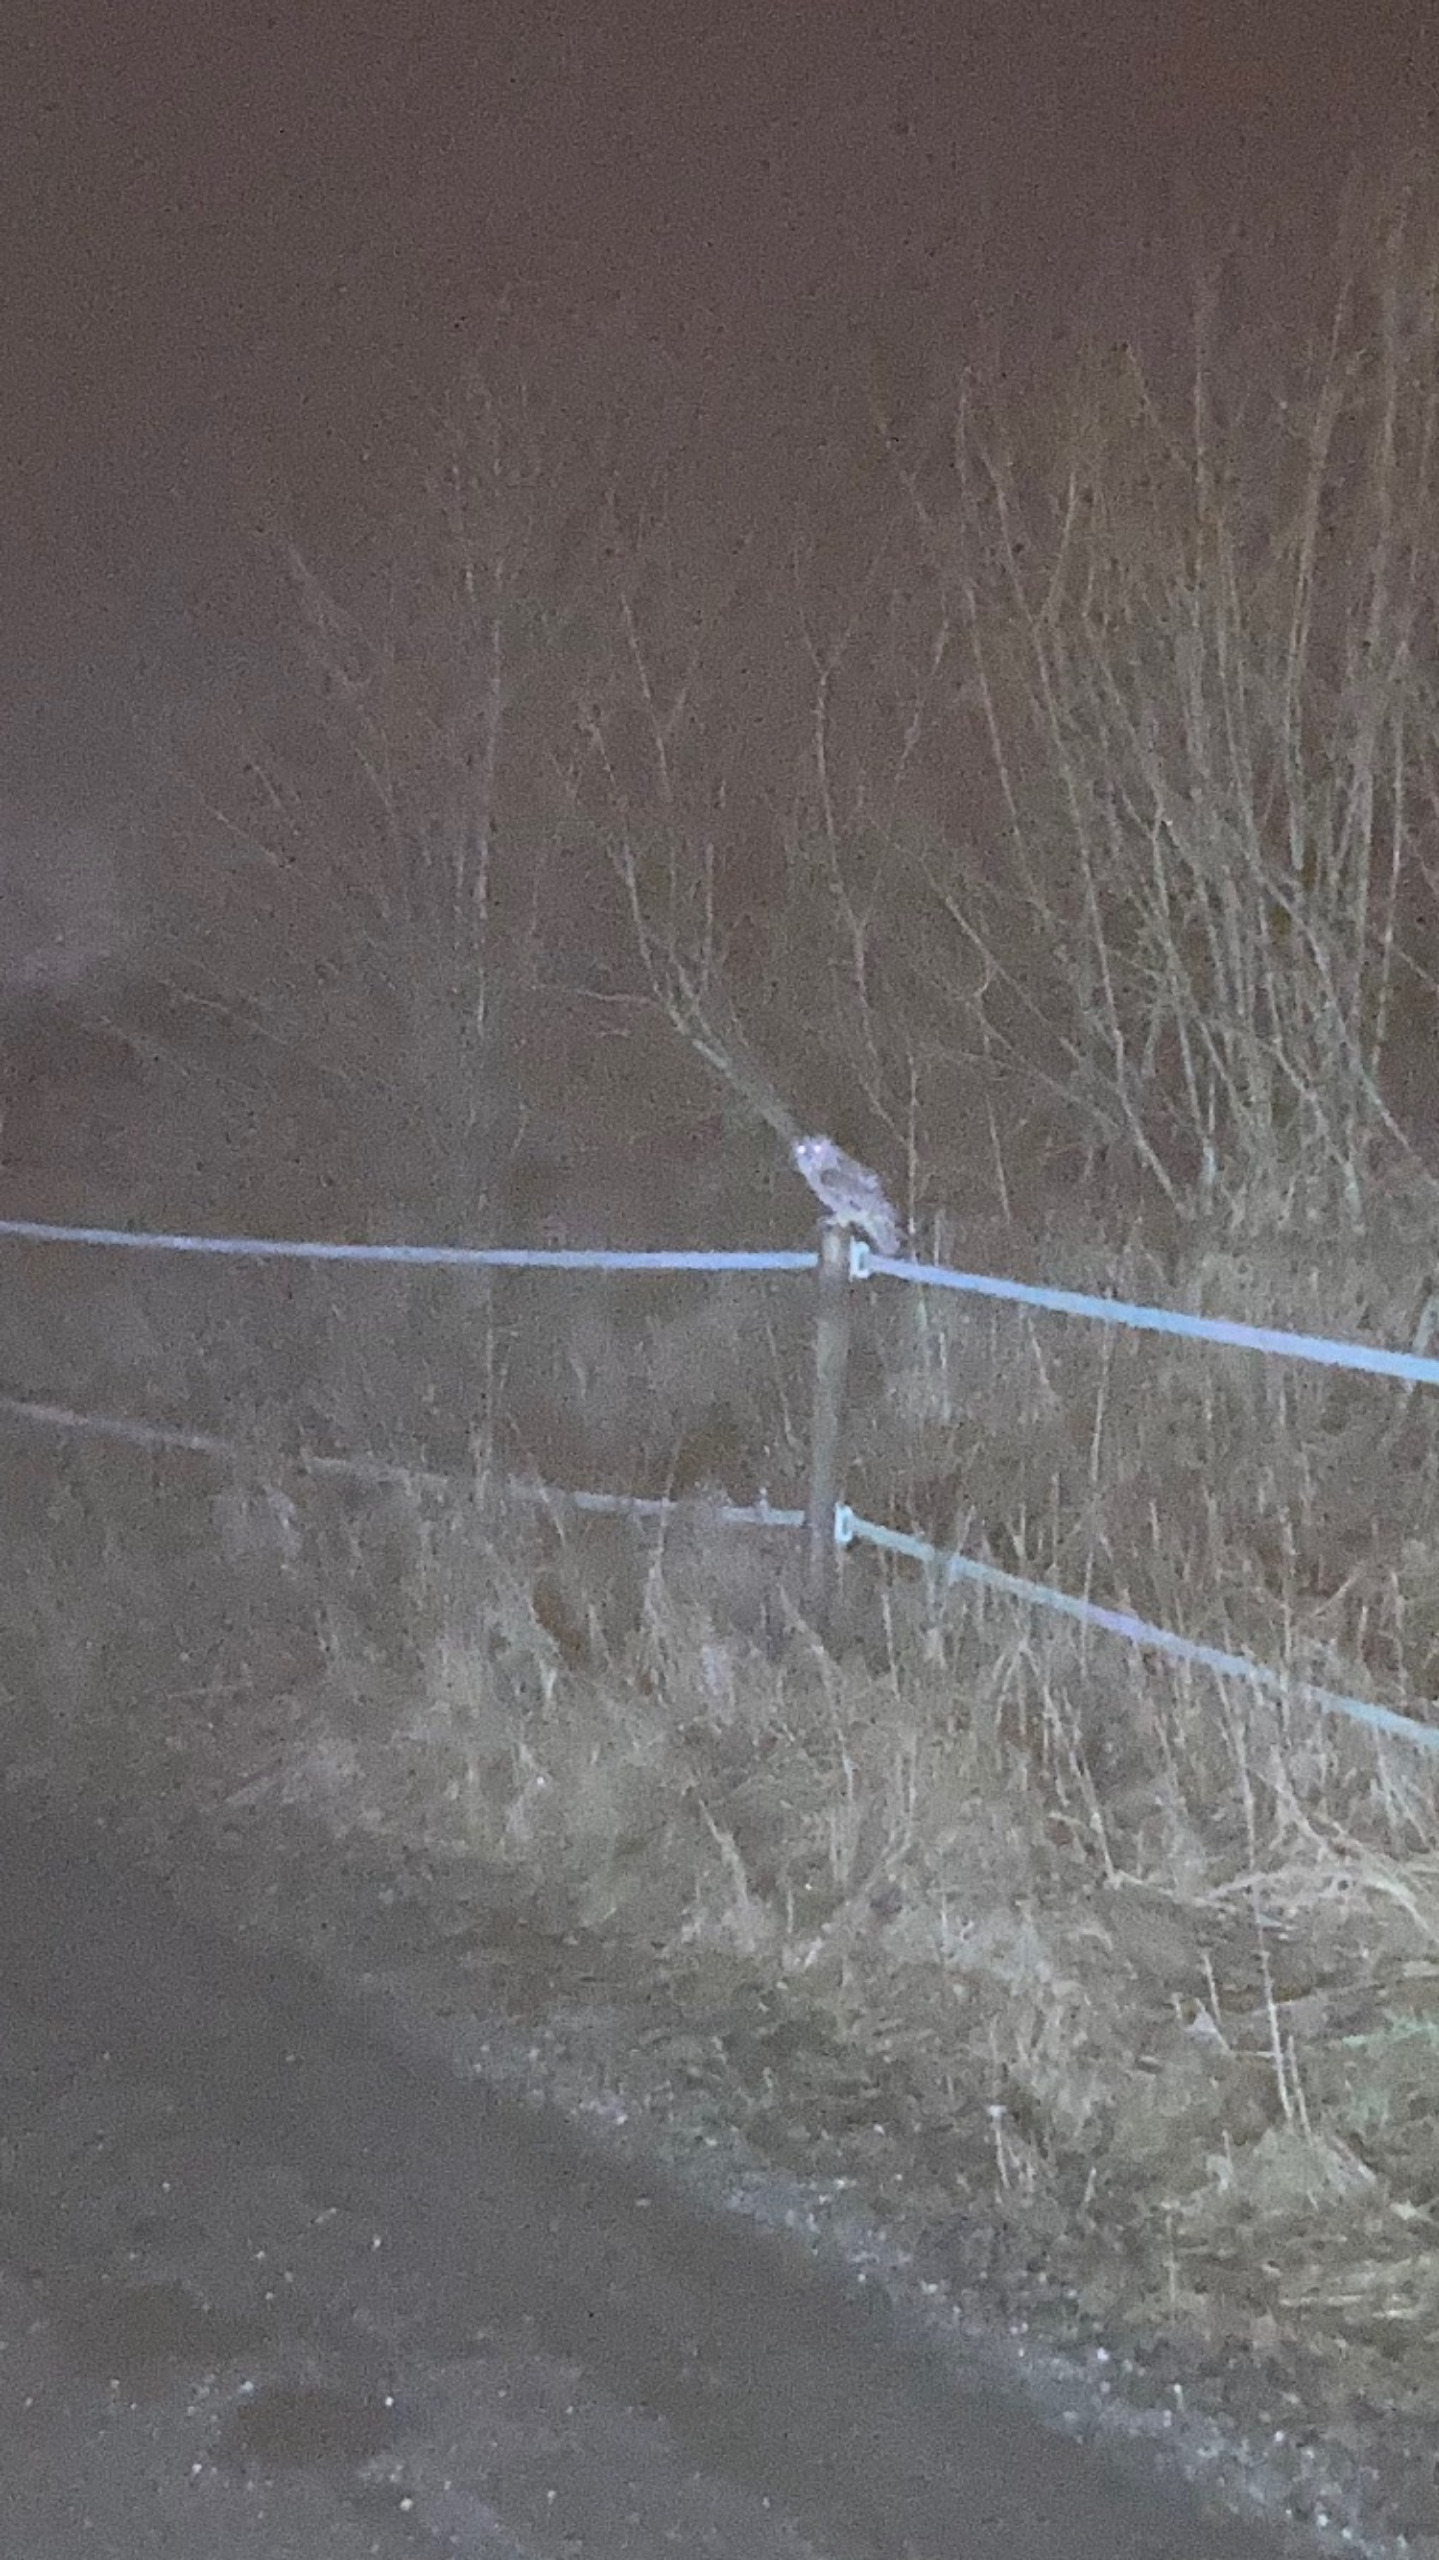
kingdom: Animalia
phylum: Chordata
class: Aves
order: Strigiformes
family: Strigidae
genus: Strix
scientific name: Strix aluco
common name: Natugle
